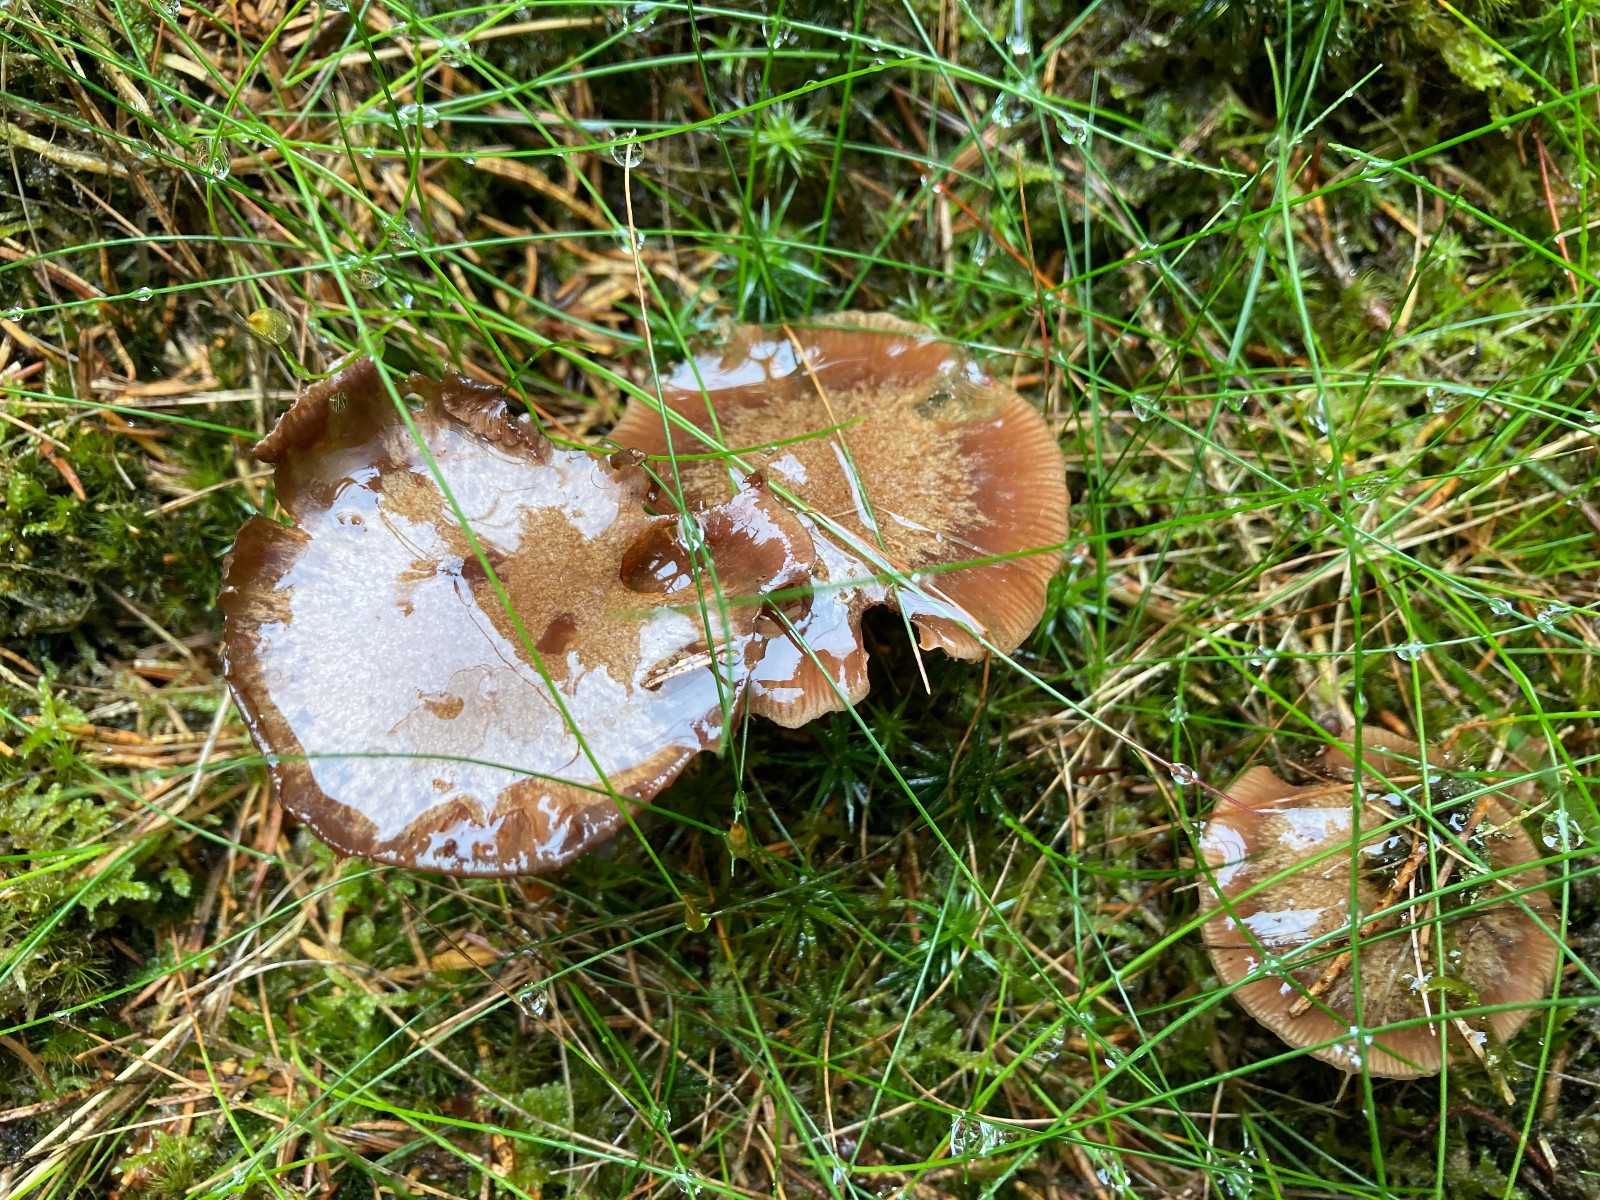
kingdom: Fungi
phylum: Basidiomycota
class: Agaricomycetes
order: Agaricales
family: Cortinariaceae
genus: Thaxterogaster
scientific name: Thaxterogaster sphagnophilus
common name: vandplettet slørhat
